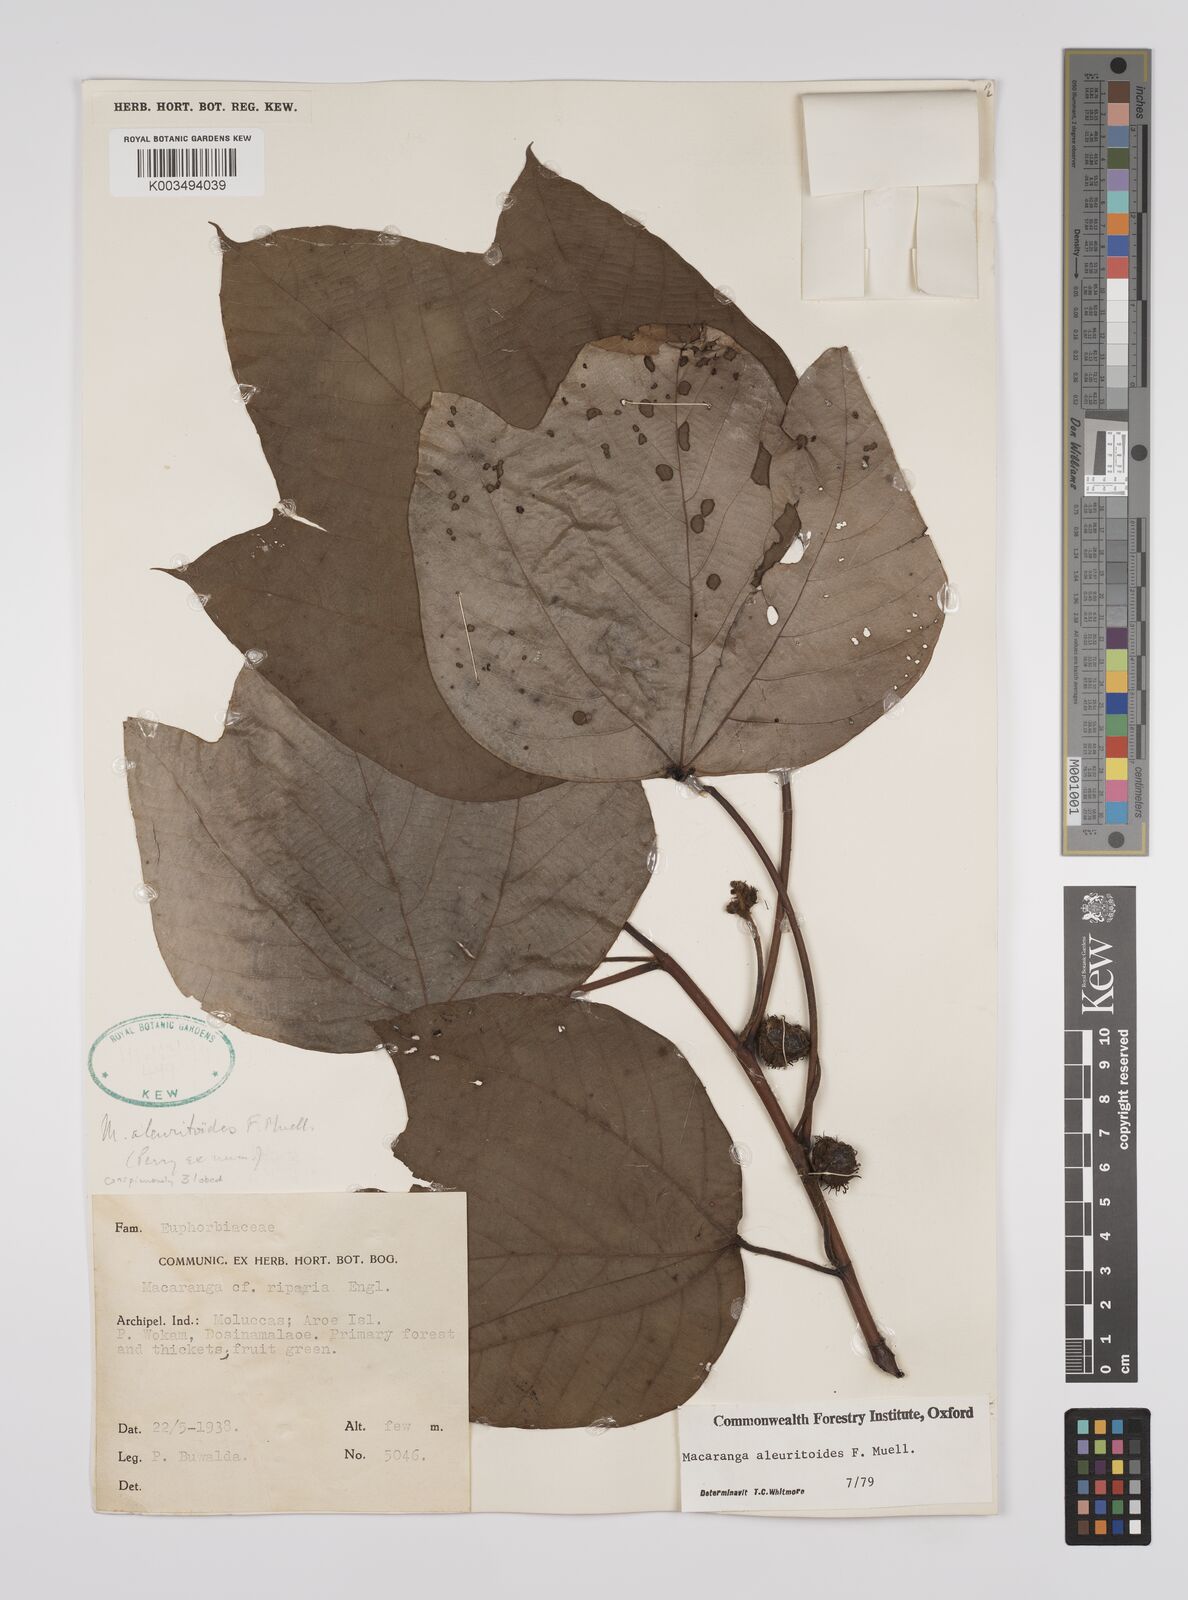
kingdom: Plantae
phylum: Tracheophyta
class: Magnoliopsida
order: Malpighiales
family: Euphorbiaceae
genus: Macaranga
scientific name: Macaranga aleuritoides
